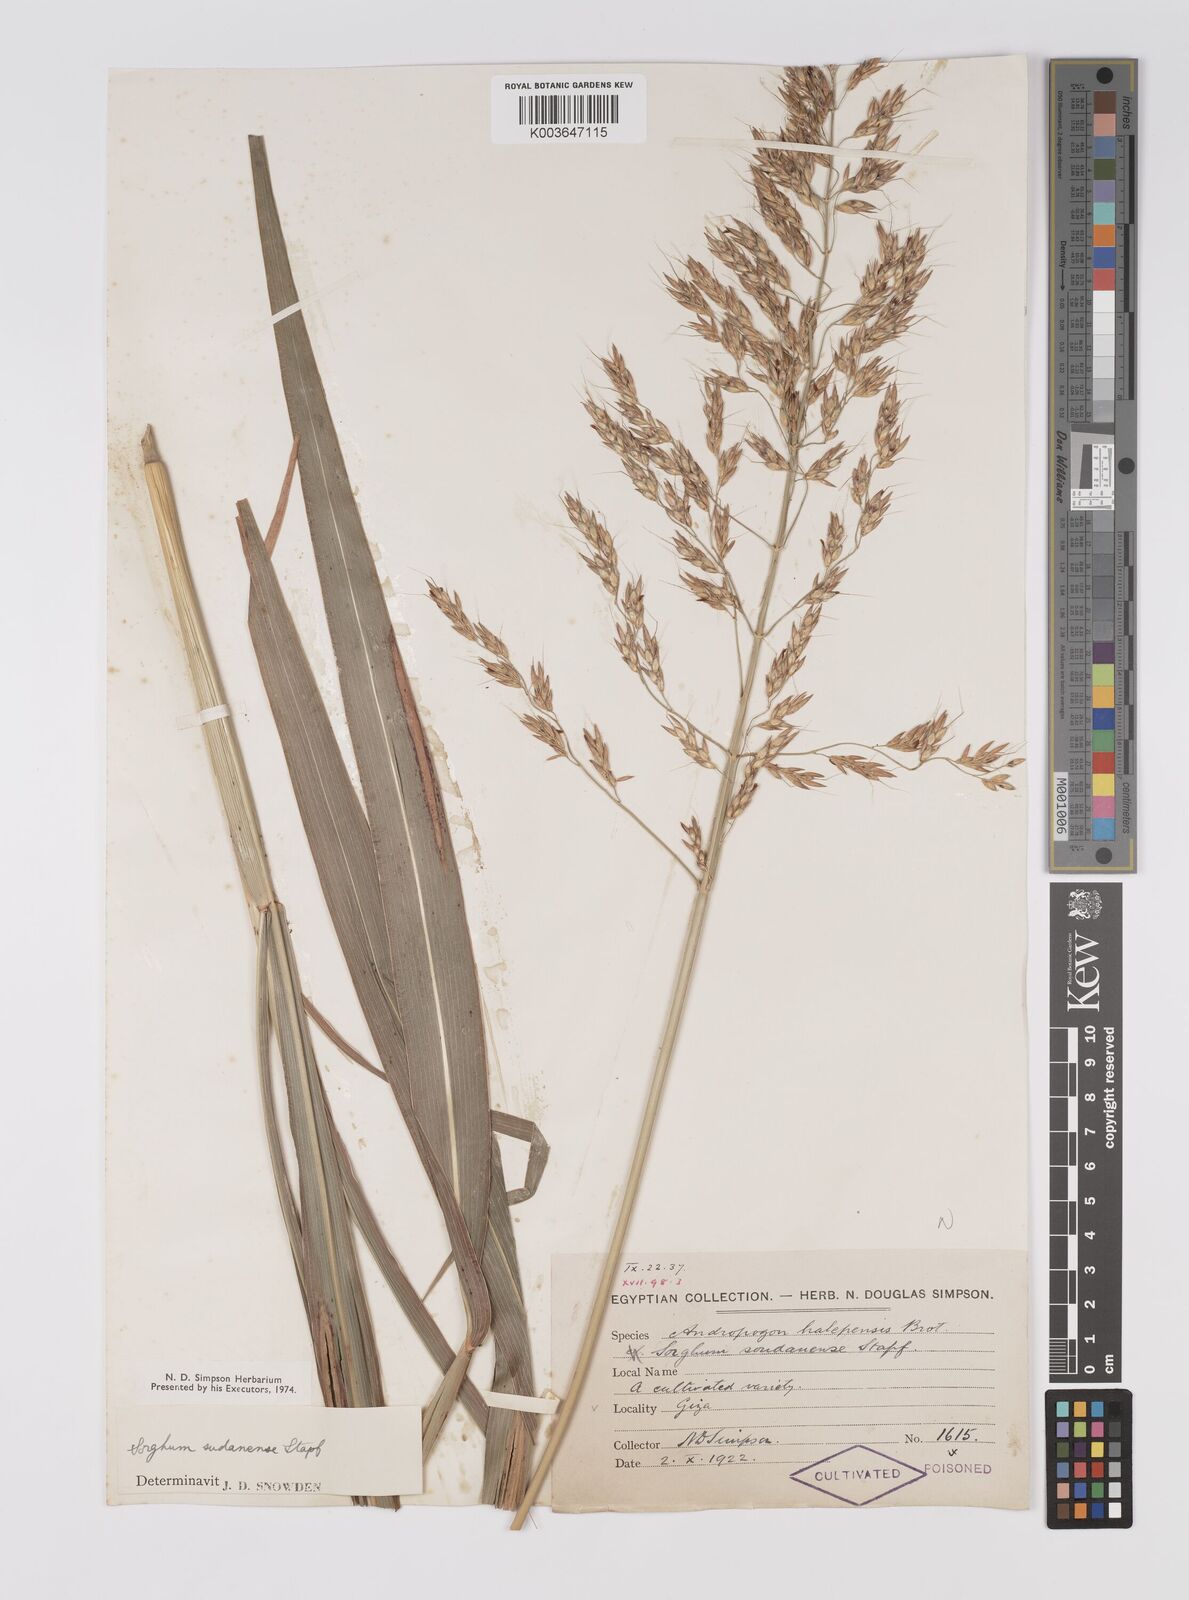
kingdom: Plantae
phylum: Tracheophyta
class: Liliopsida
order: Poales
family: Poaceae
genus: Sorghum
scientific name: Sorghum drummondii
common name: Sudangrass
